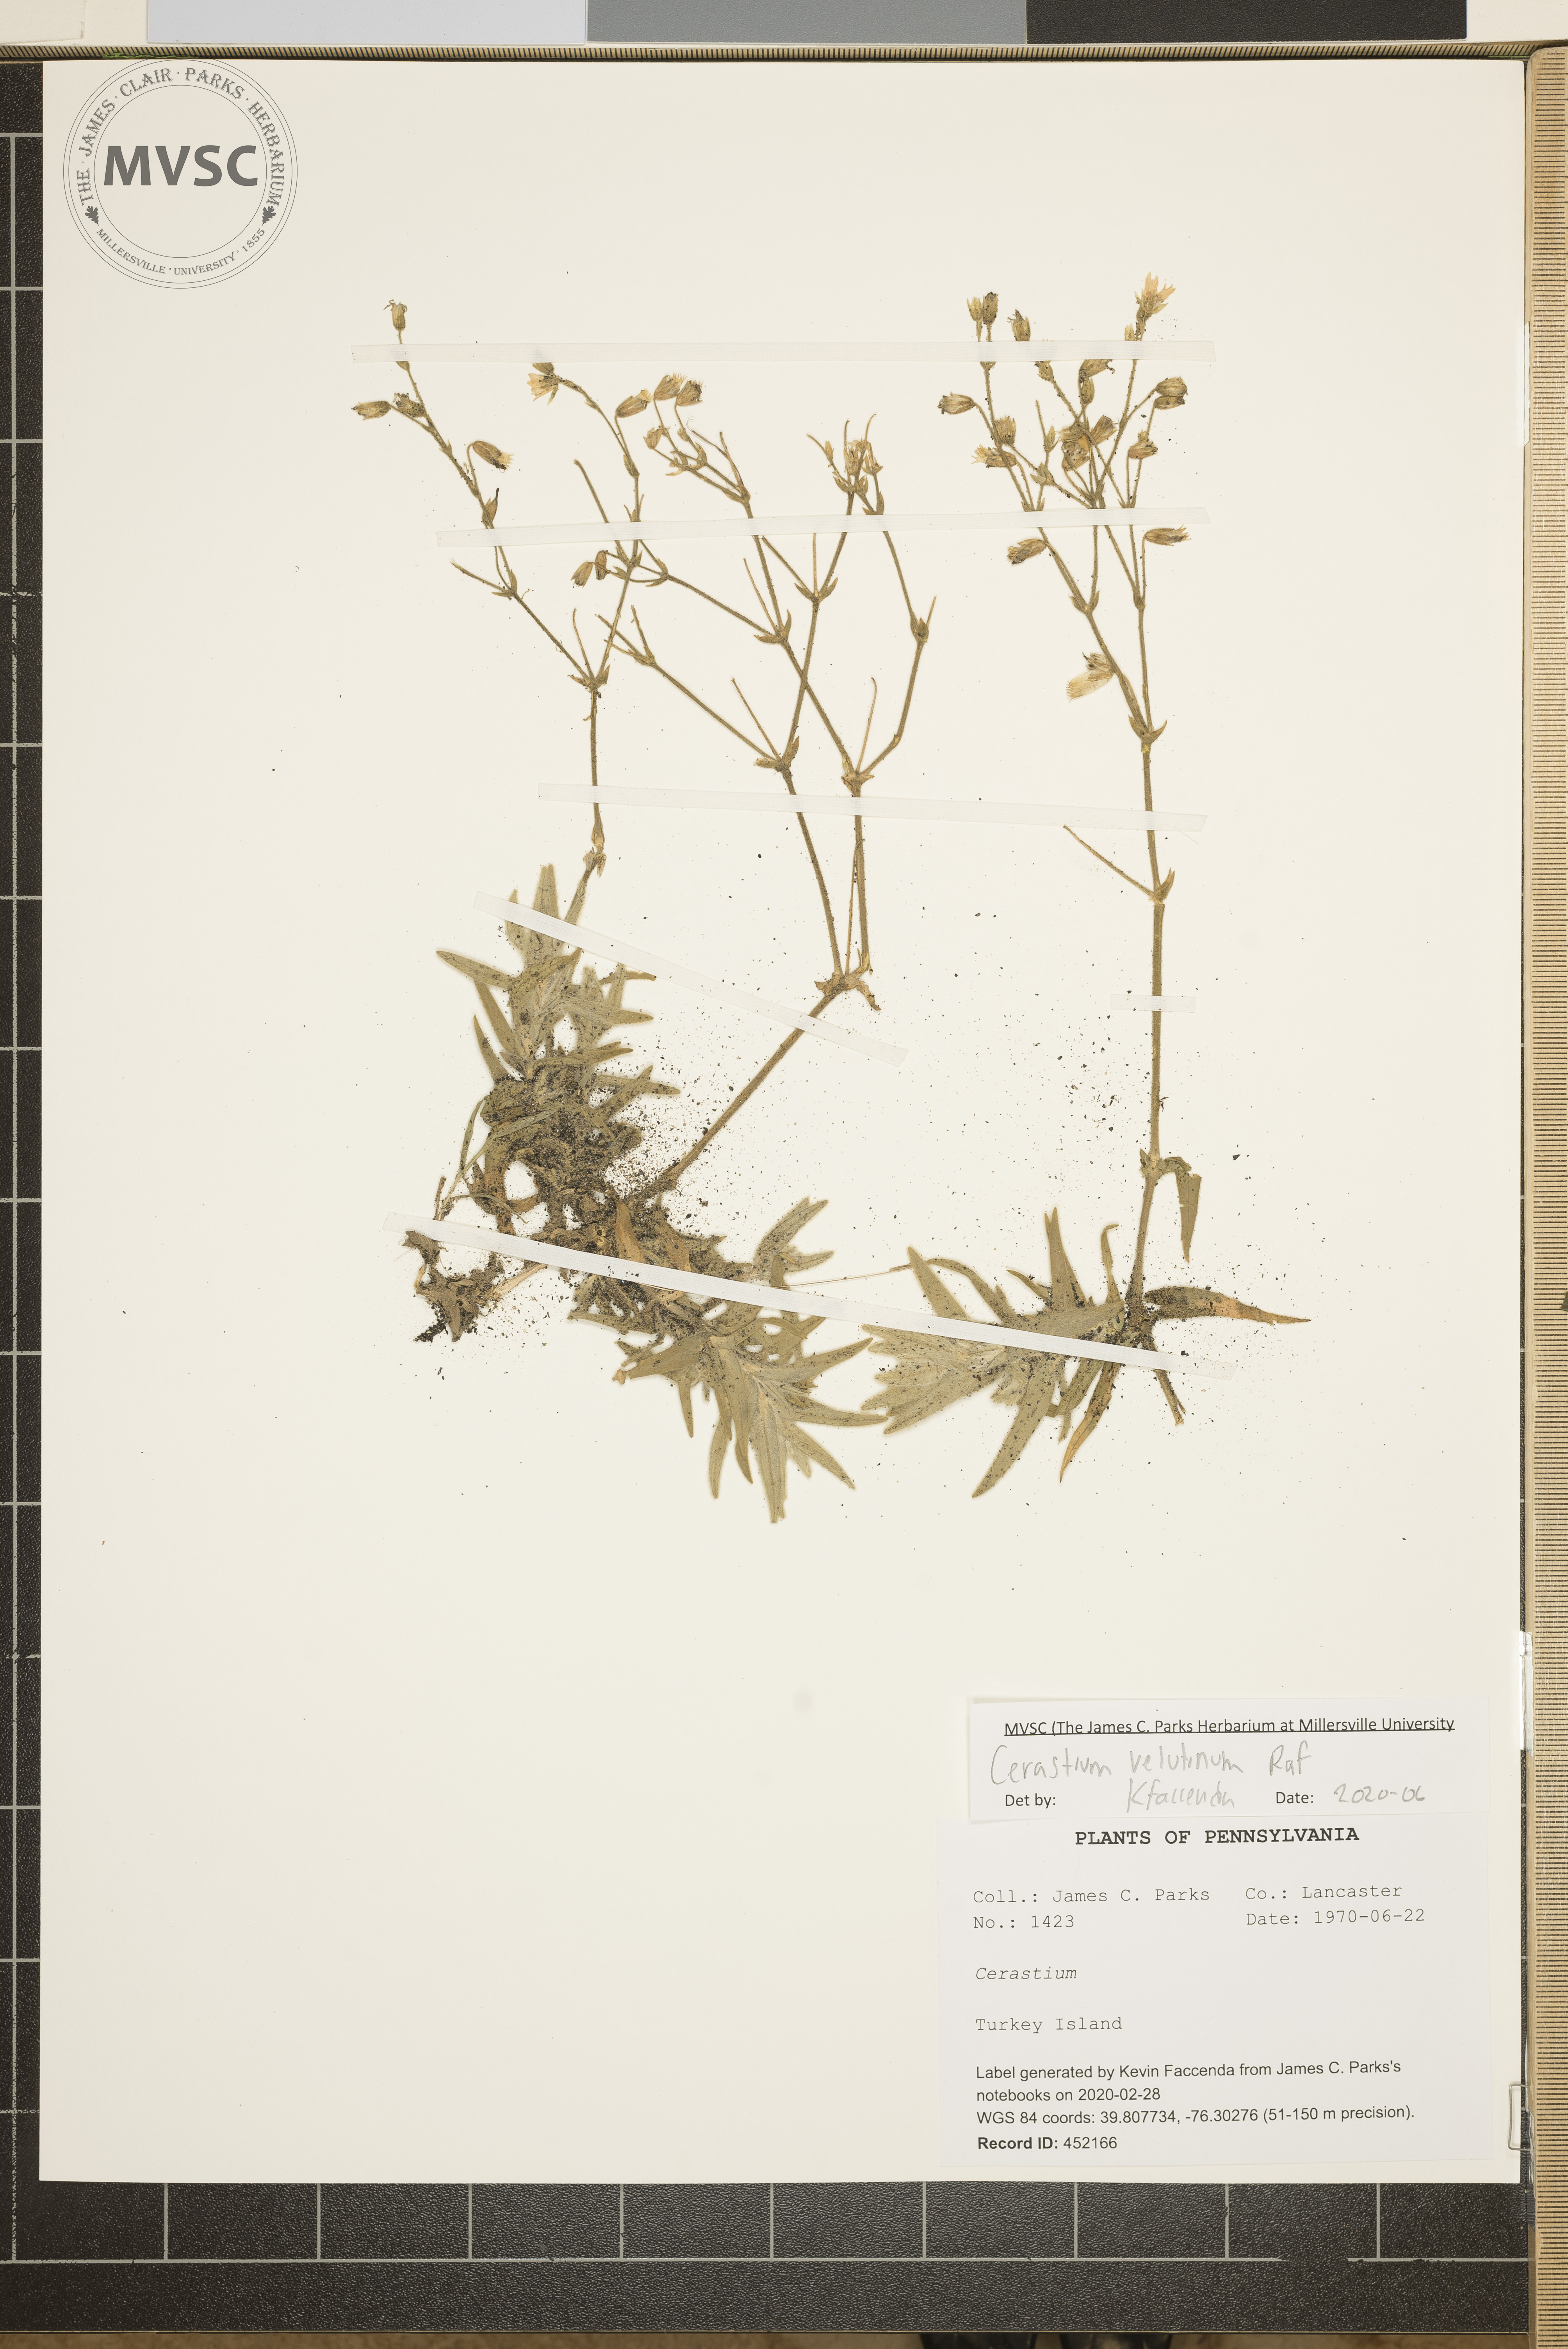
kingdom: Plantae
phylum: Tracheophyta
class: Magnoliopsida
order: Caryophyllales
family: Caryophyllaceae
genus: Cerastium
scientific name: Cerastium velutinum
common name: Barren chickweed
